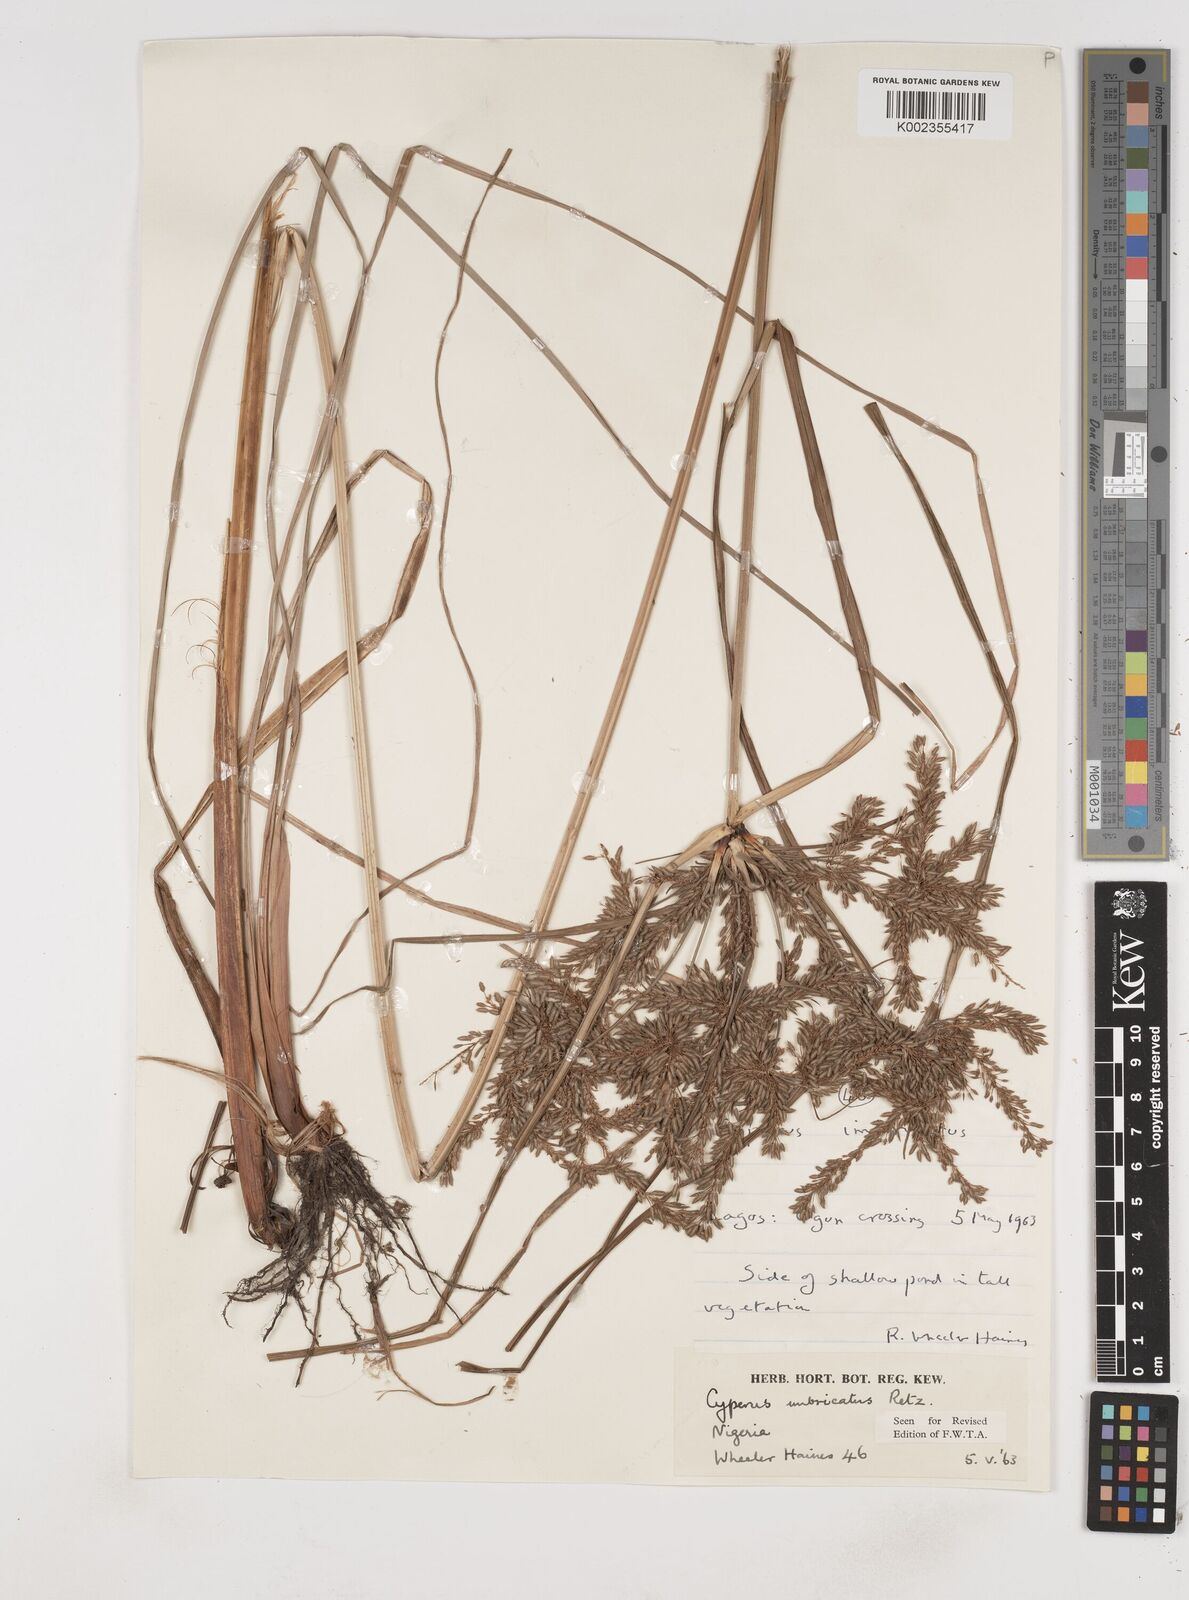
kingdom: Plantae
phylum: Tracheophyta
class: Liliopsida
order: Poales
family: Cyperaceae
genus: Cyperus
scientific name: Cyperus imbricatus
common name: Shingle flatsedge
